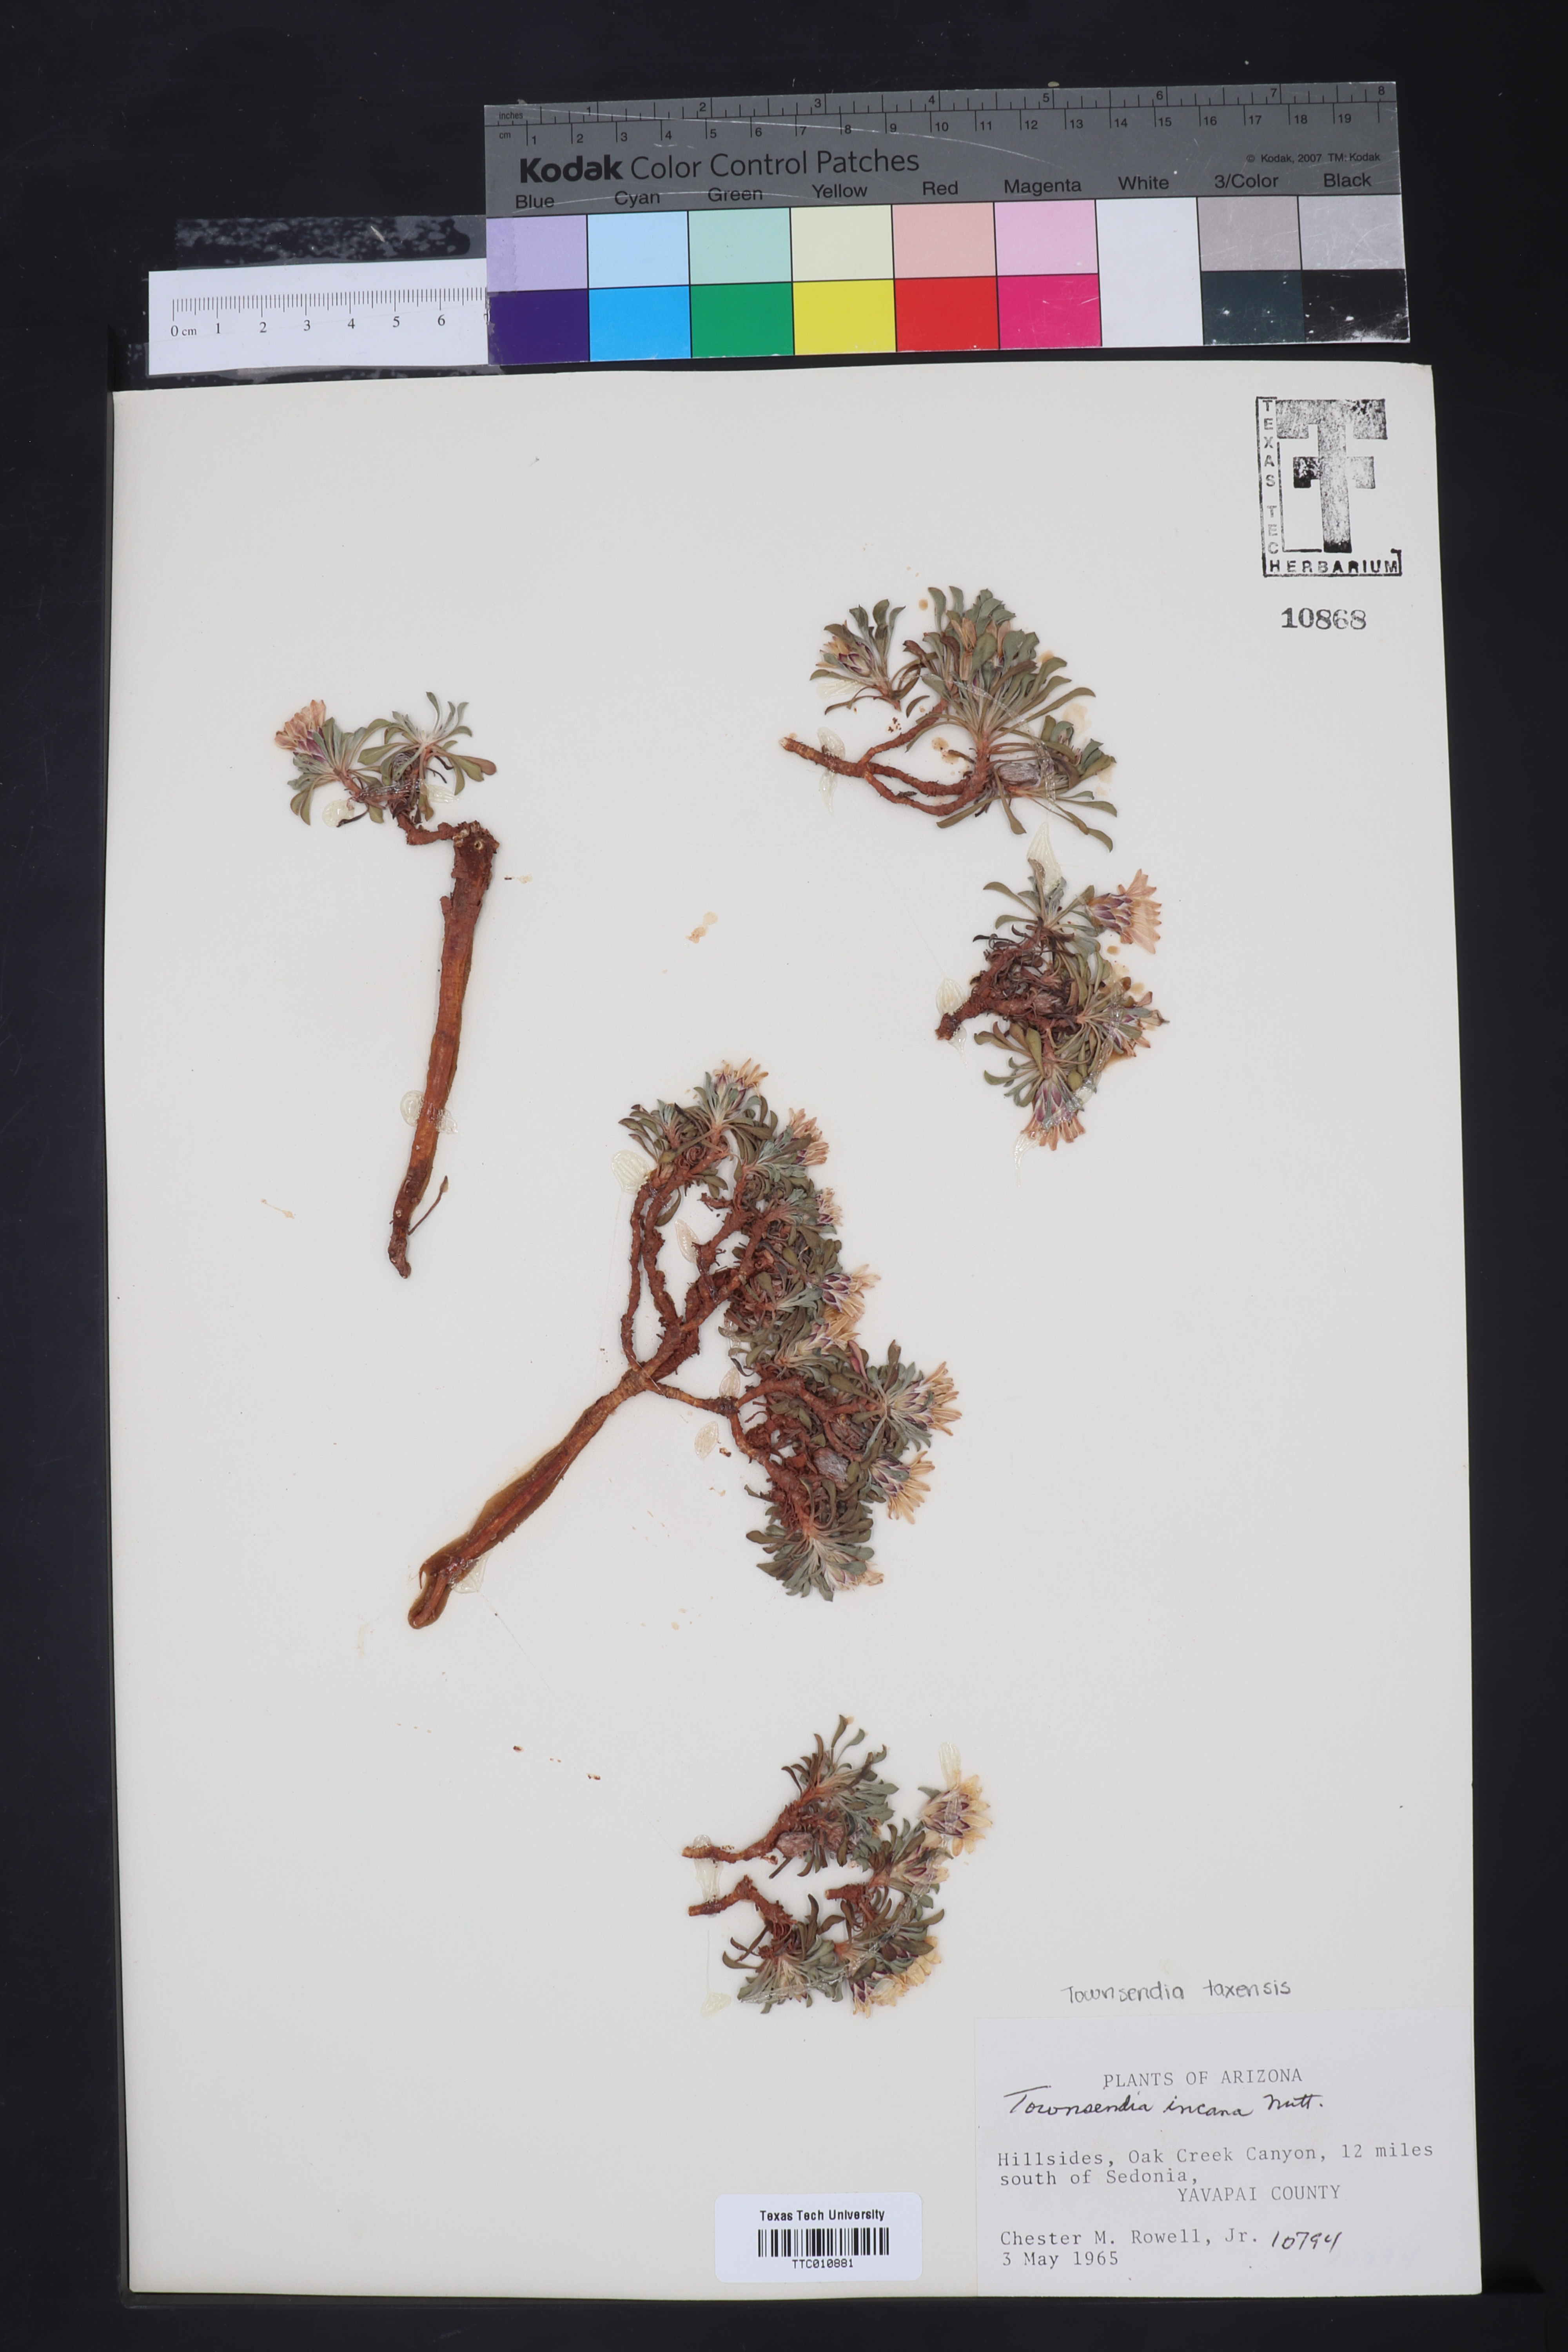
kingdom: Plantae
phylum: Tracheophyta
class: Magnoliopsida
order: Asterales
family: Asteraceae
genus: Townsendia
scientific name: Townsendia incana
